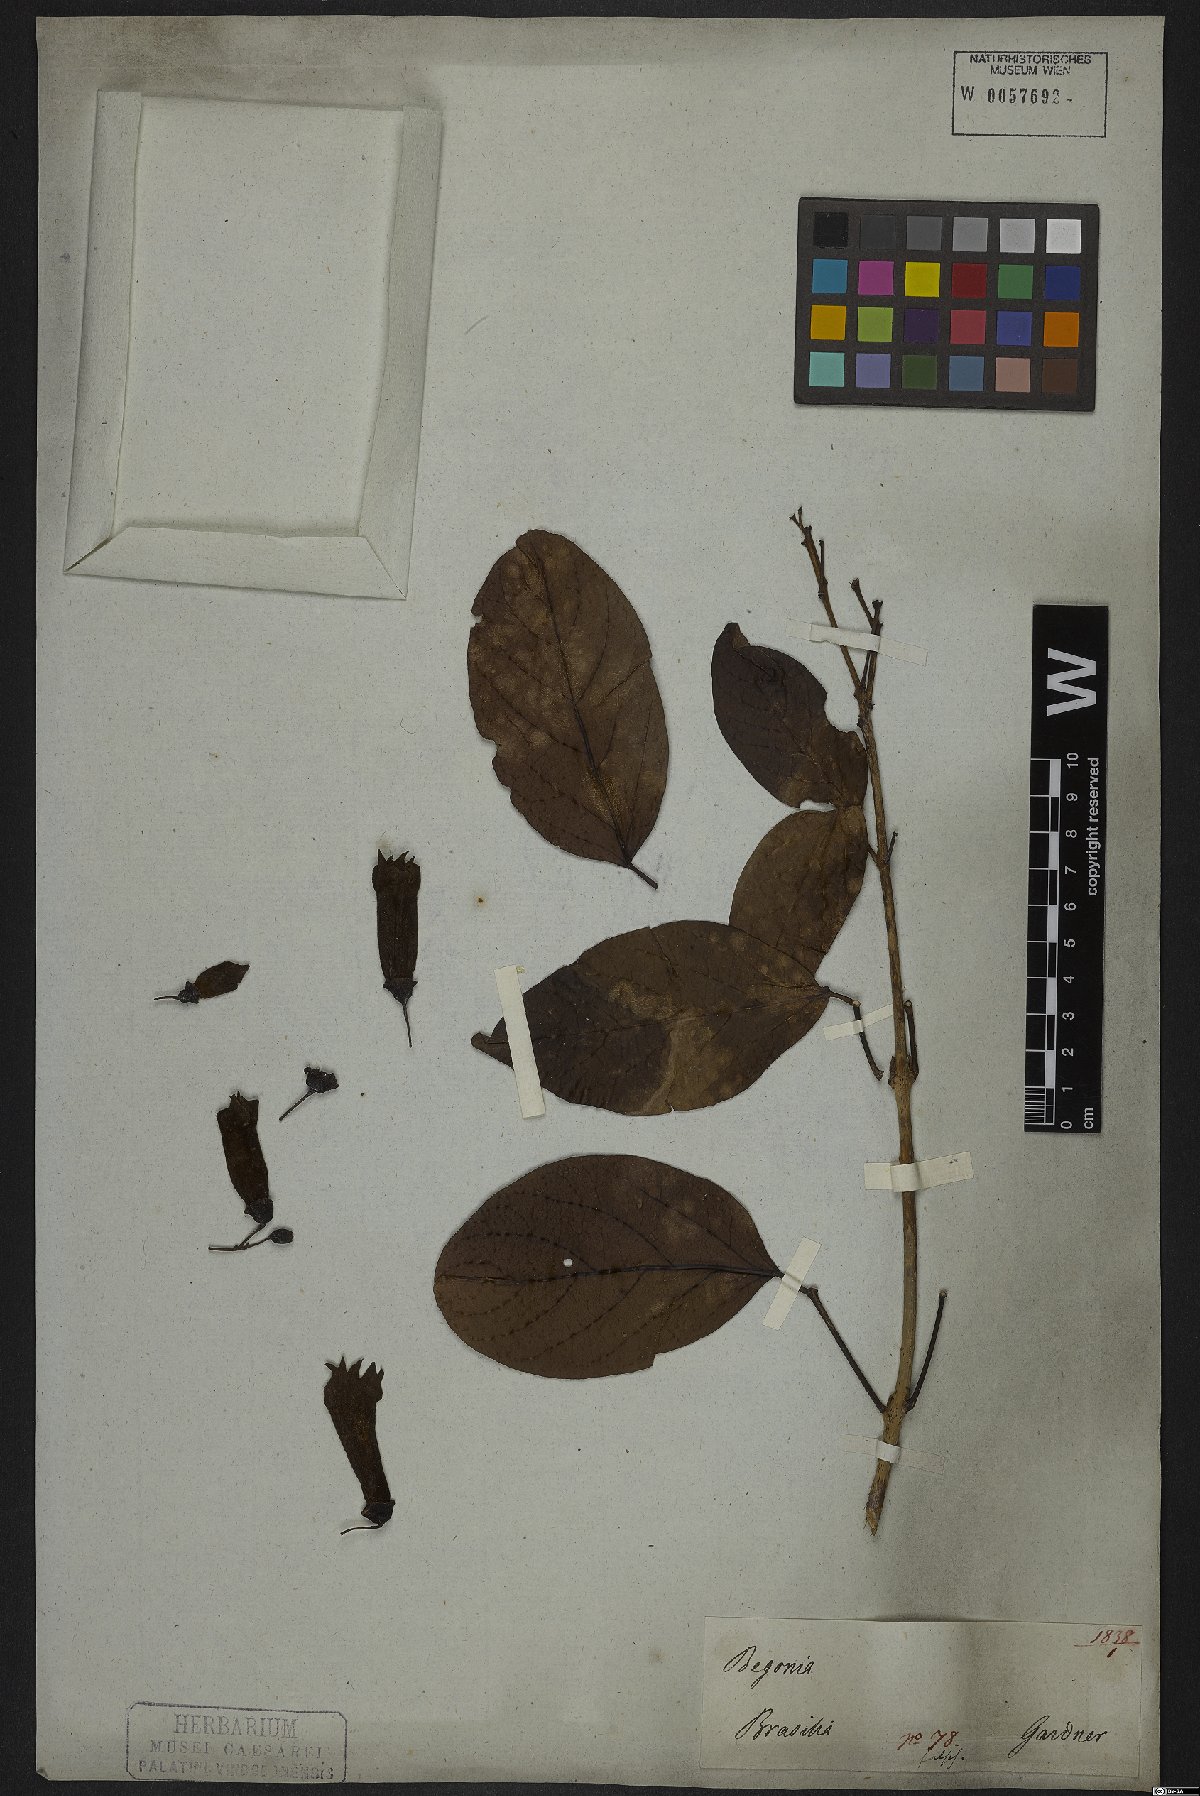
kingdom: Plantae
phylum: Tracheophyta
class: Magnoliopsida
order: Lamiales
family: Bignoniaceae
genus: Tanaecium
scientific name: Tanaecium pyramidatum
